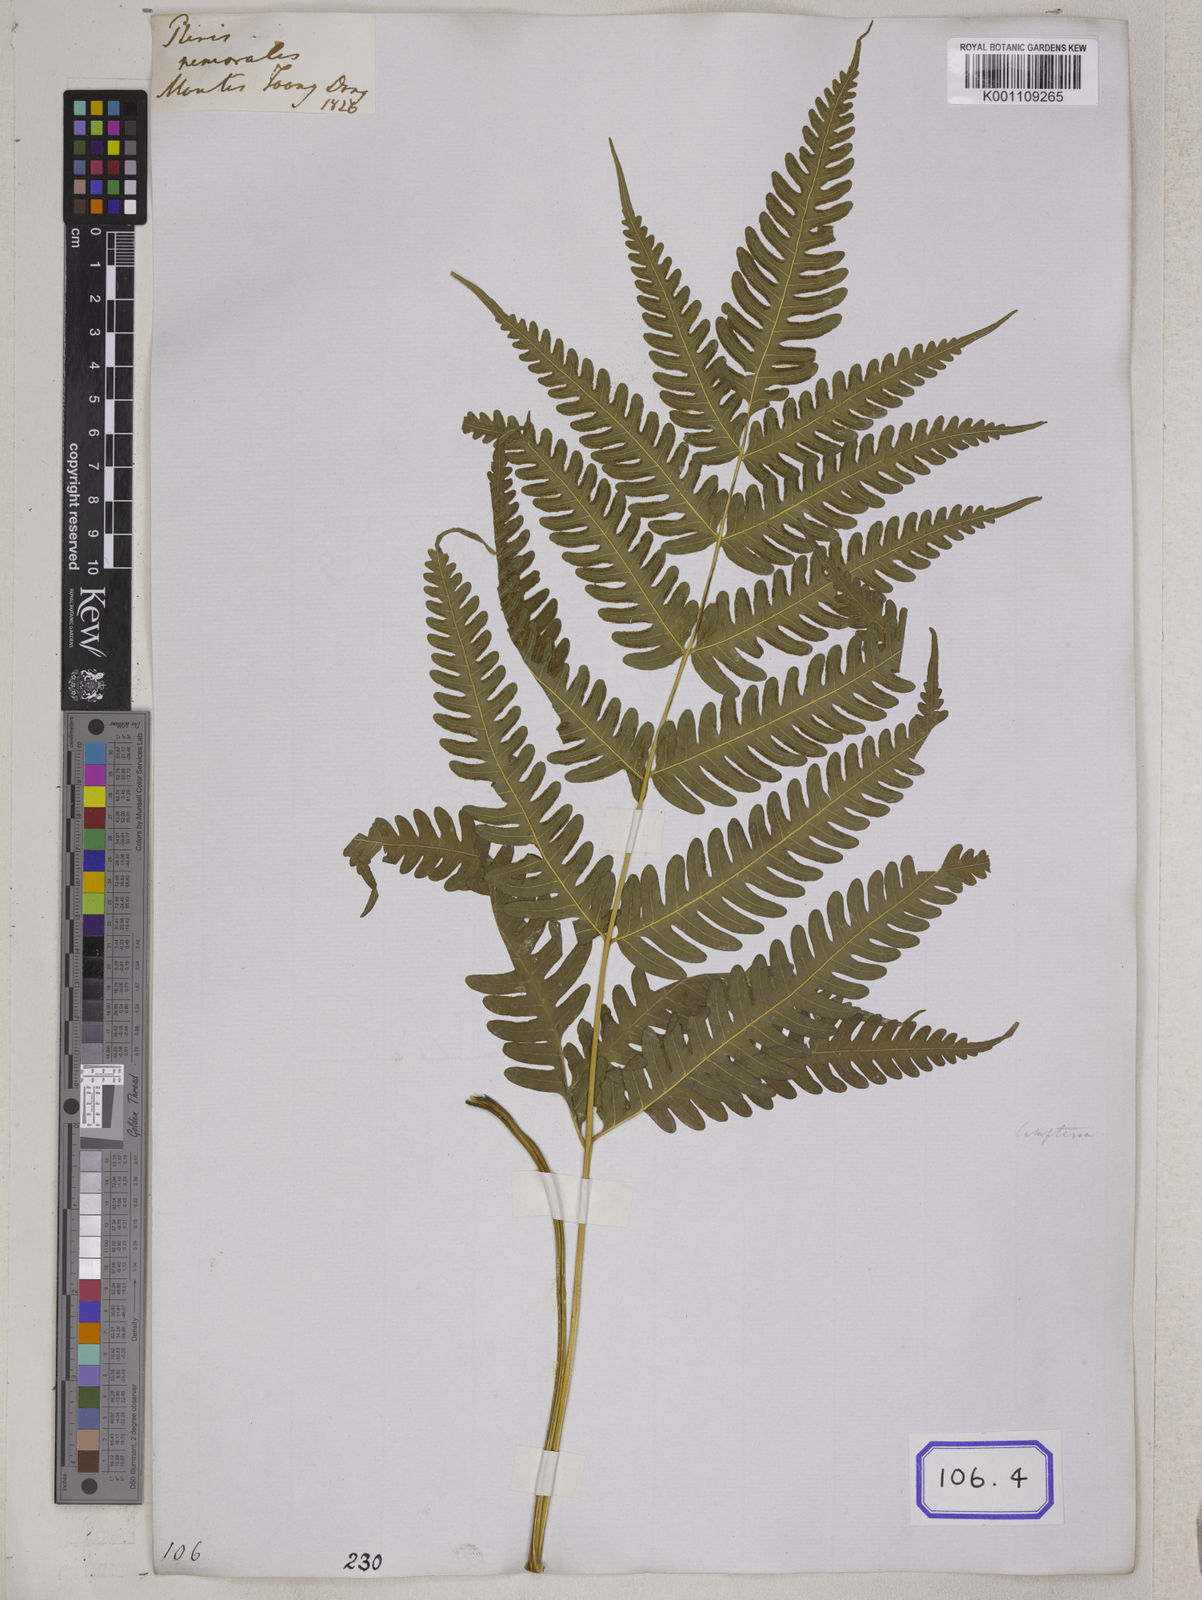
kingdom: Plantae
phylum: Tracheophyta
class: Polypodiopsida
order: Polypodiales
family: Pteridaceae
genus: Pteris
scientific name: Pteris linearis
